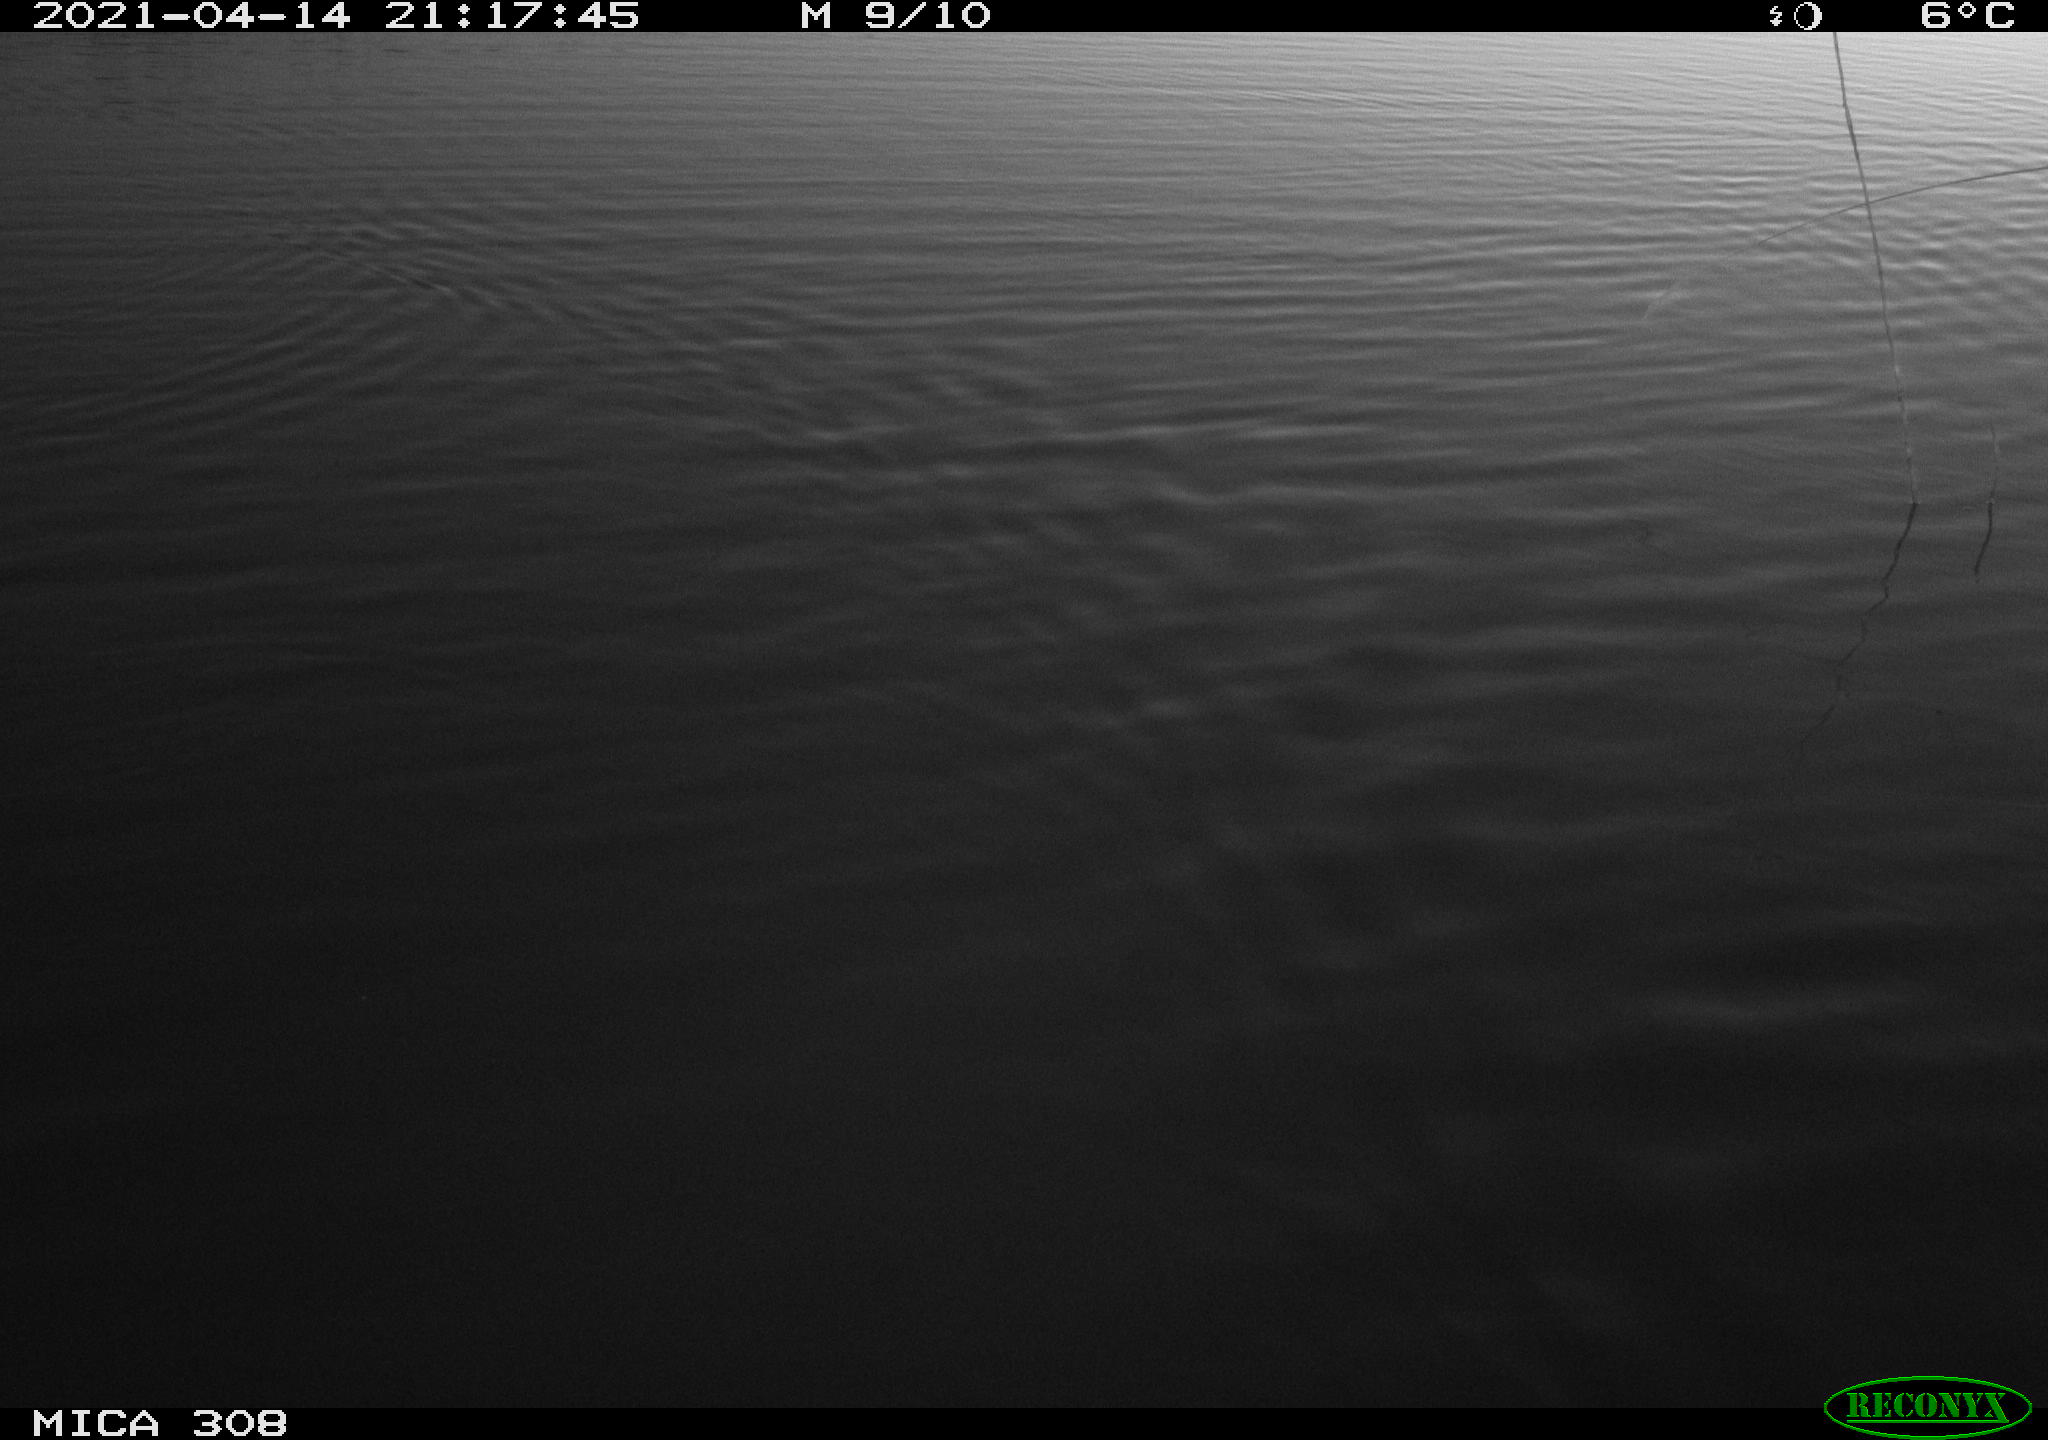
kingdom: Animalia
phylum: Chordata
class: Aves
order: Anseriformes
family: Anatidae
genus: Anas
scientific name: Anas platyrhynchos
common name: Mallard
